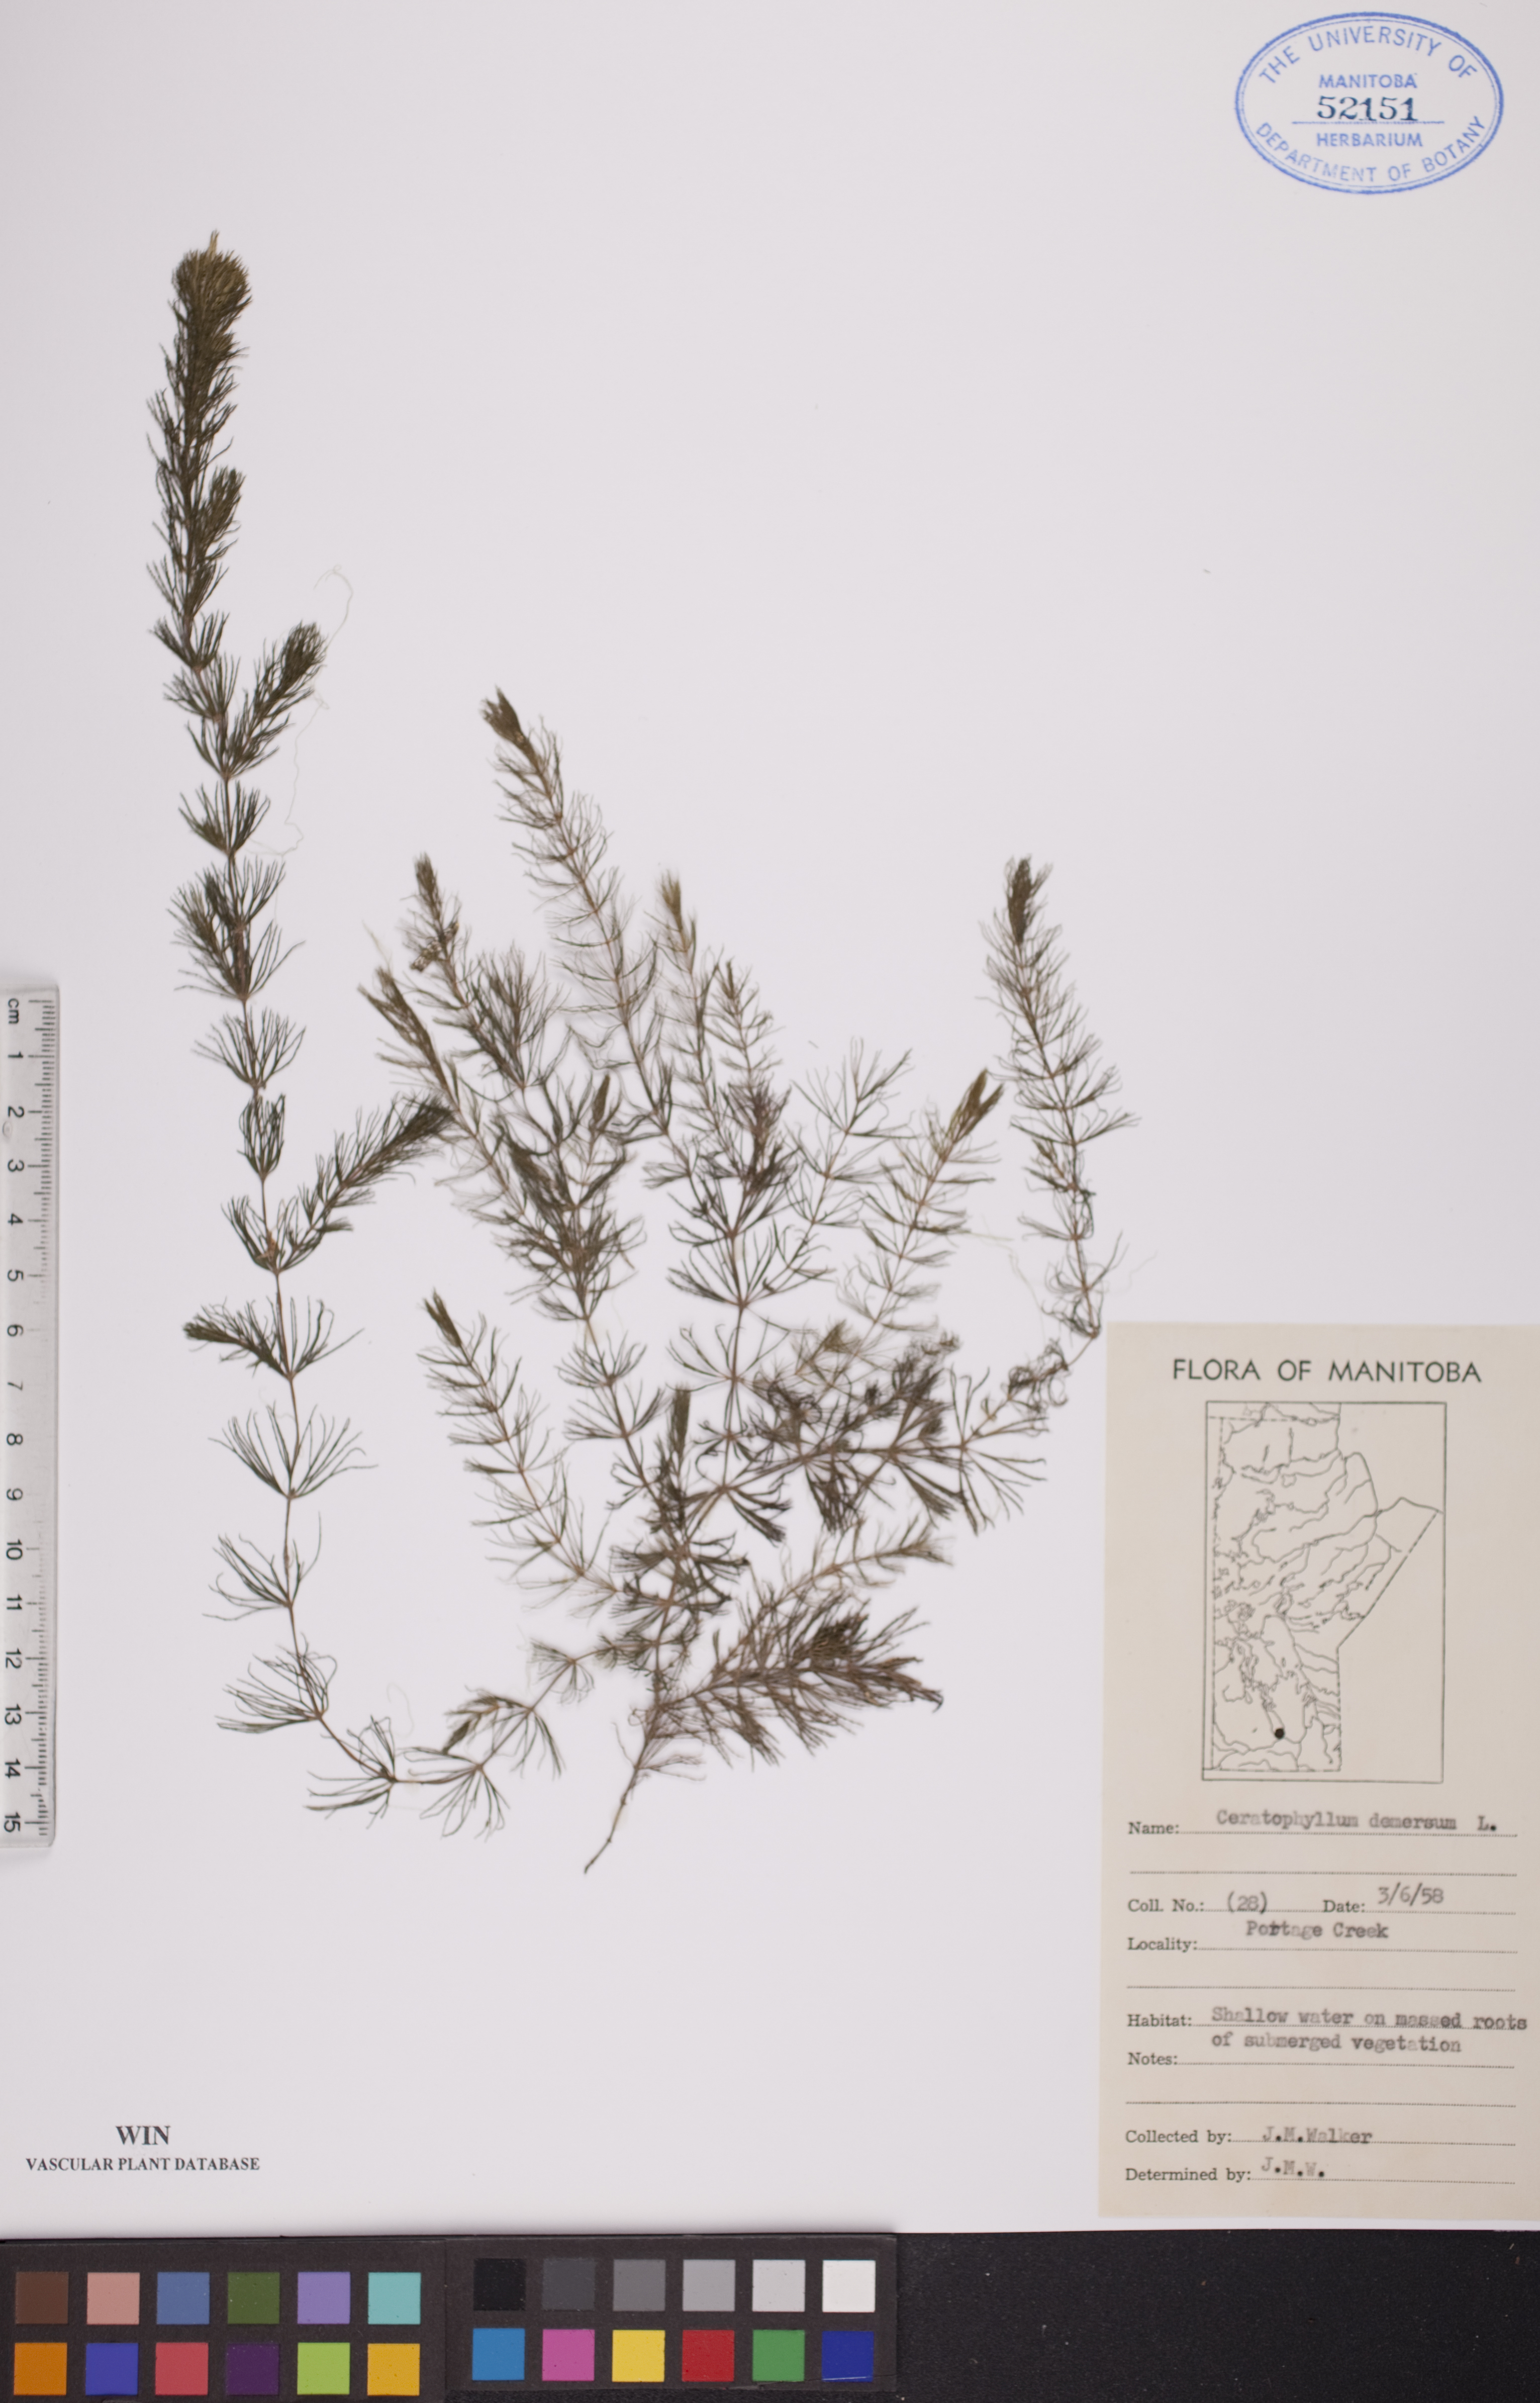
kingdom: Plantae
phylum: Tracheophyta
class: Magnoliopsida
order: Ceratophyllales
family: Ceratophyllaceae
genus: Ceratophyllum
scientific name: Ceratophyllum demersum
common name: Rigid hornwort
